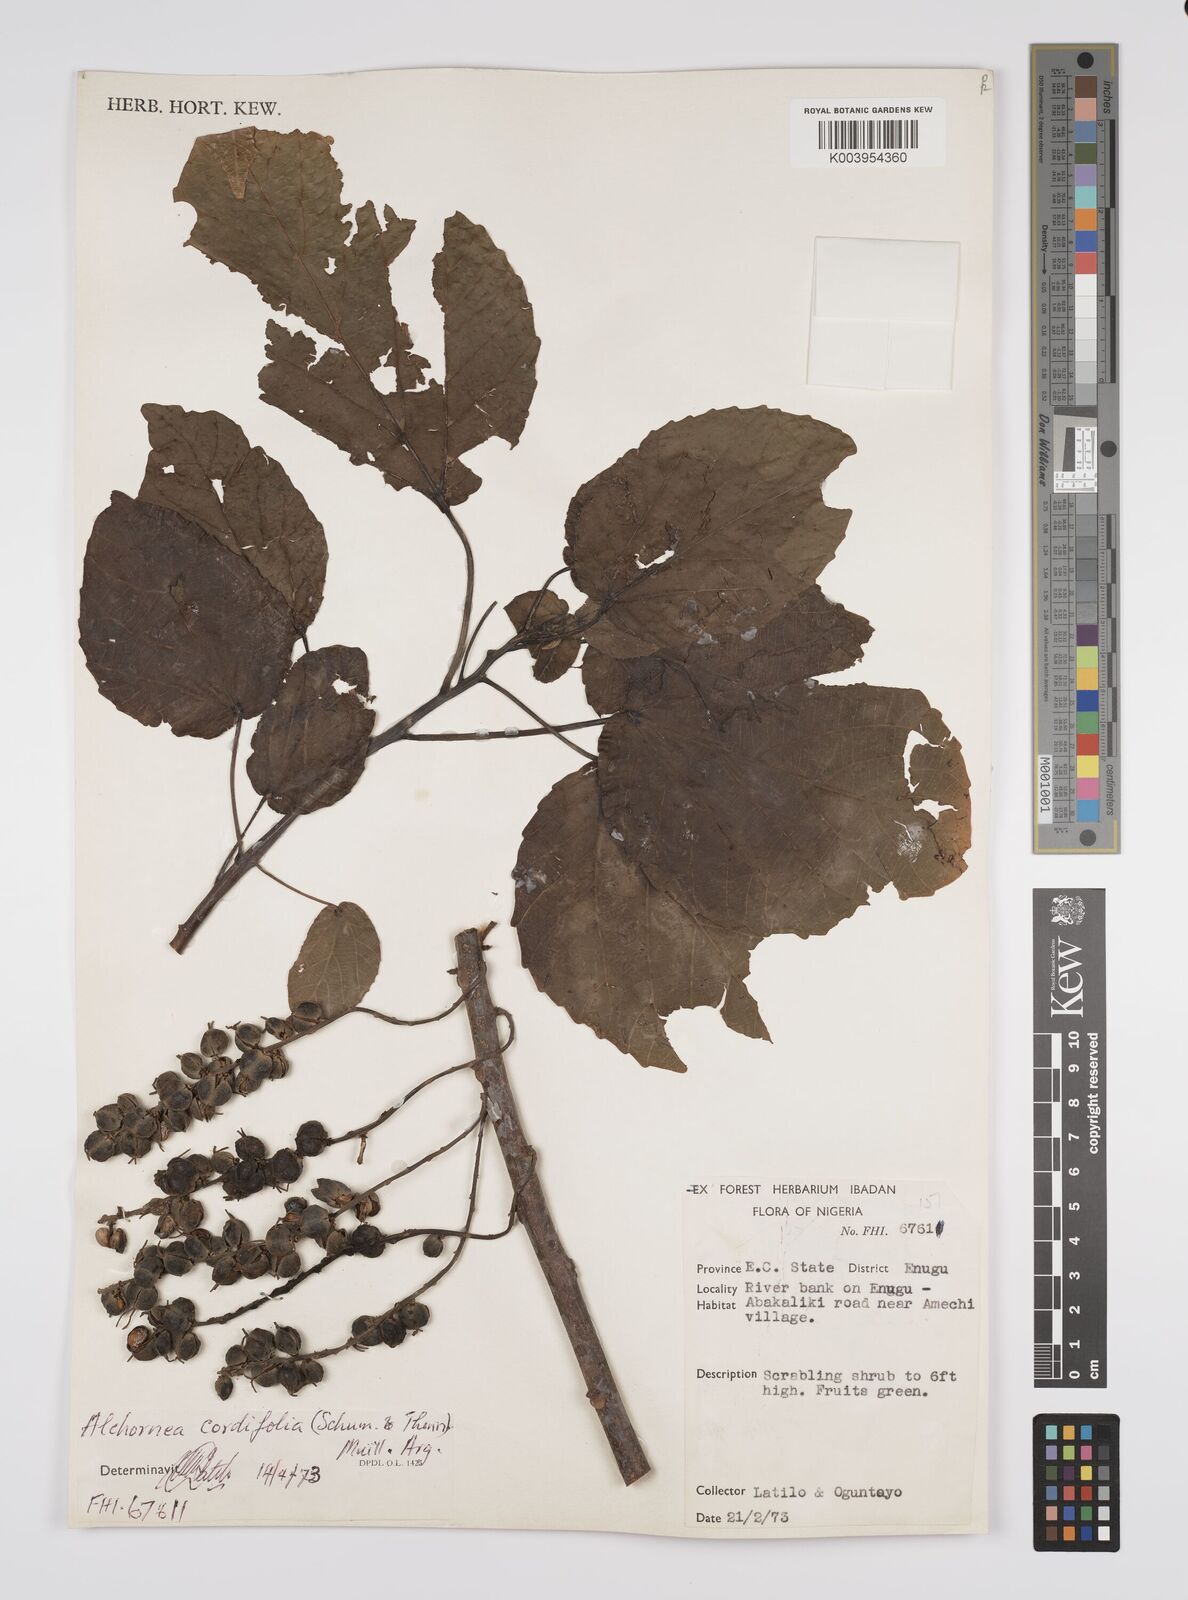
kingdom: Plantae
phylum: Tracheophyta
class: Magnoliopsida
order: Malpighiales
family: Euphorbiaceae
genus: Alchornea
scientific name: Alchornea cordifolia
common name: Christmasbush
